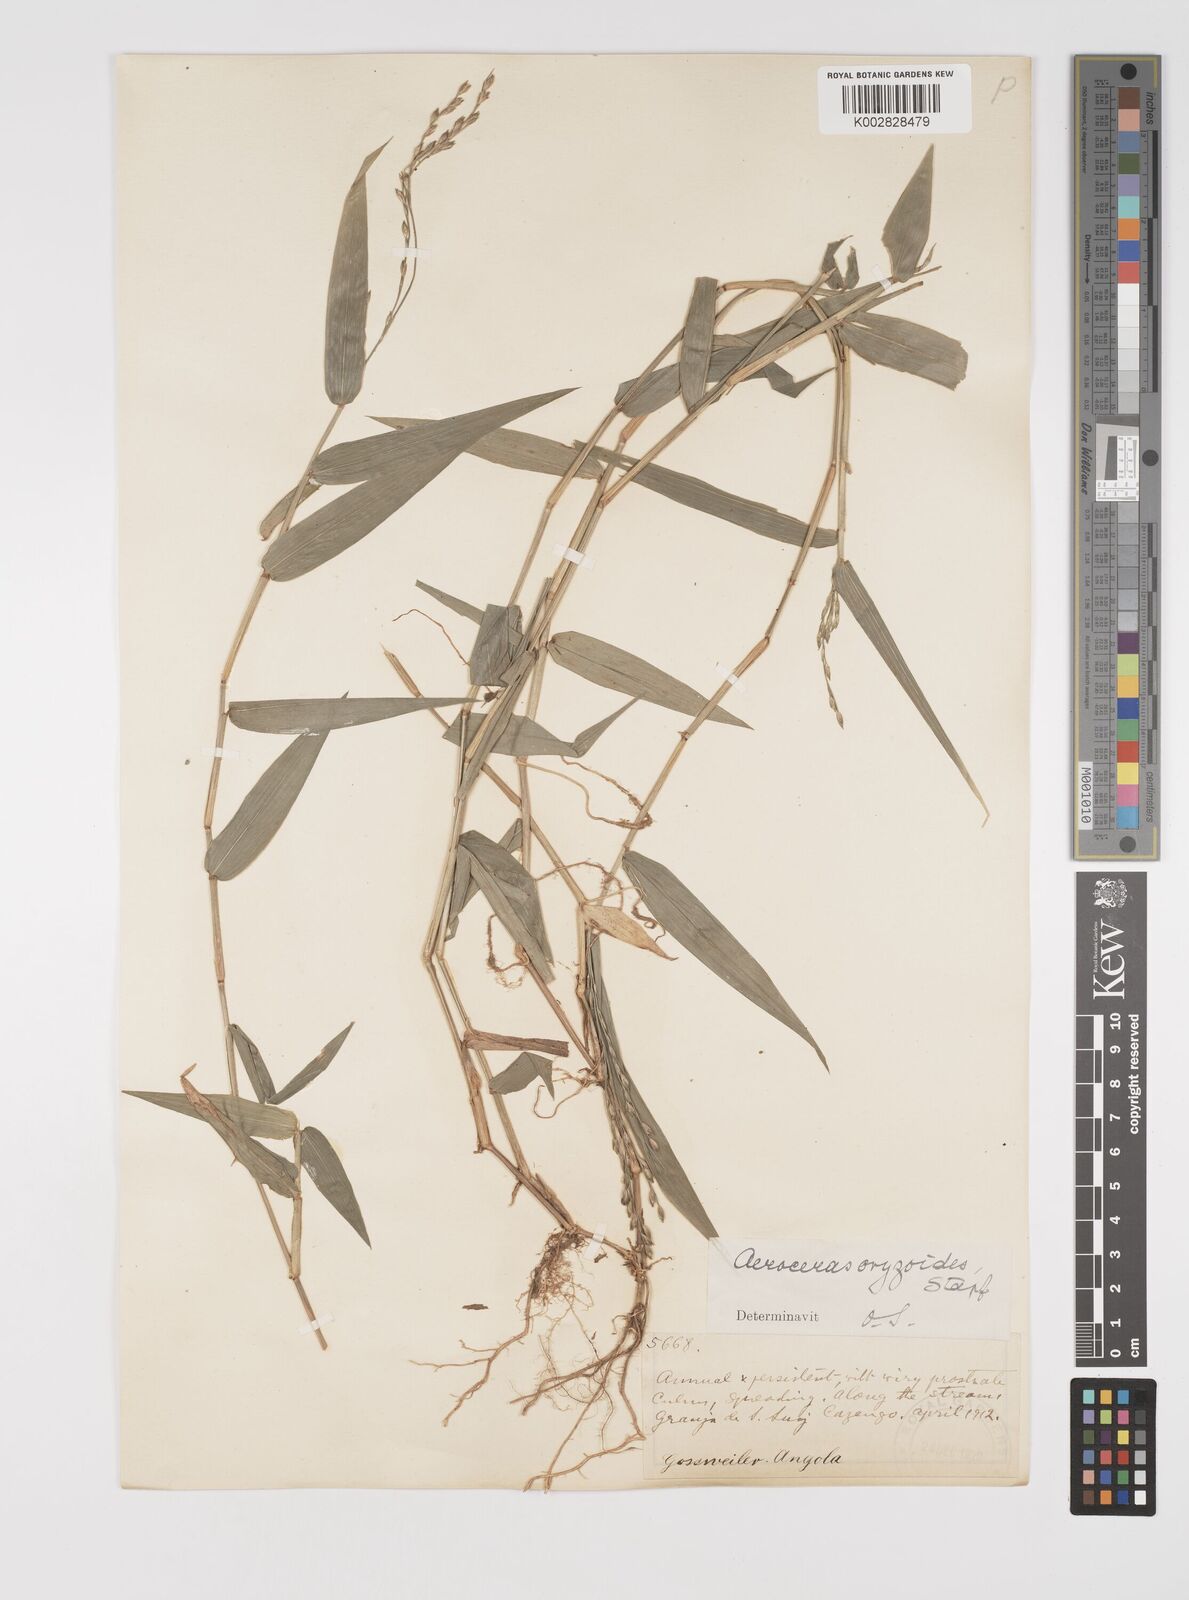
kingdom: Plantae
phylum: Tracheophyta
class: Liliopsida
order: Poales
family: Poaceae
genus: Acroceras
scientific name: Acroceras zizanioides
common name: Oat grass
